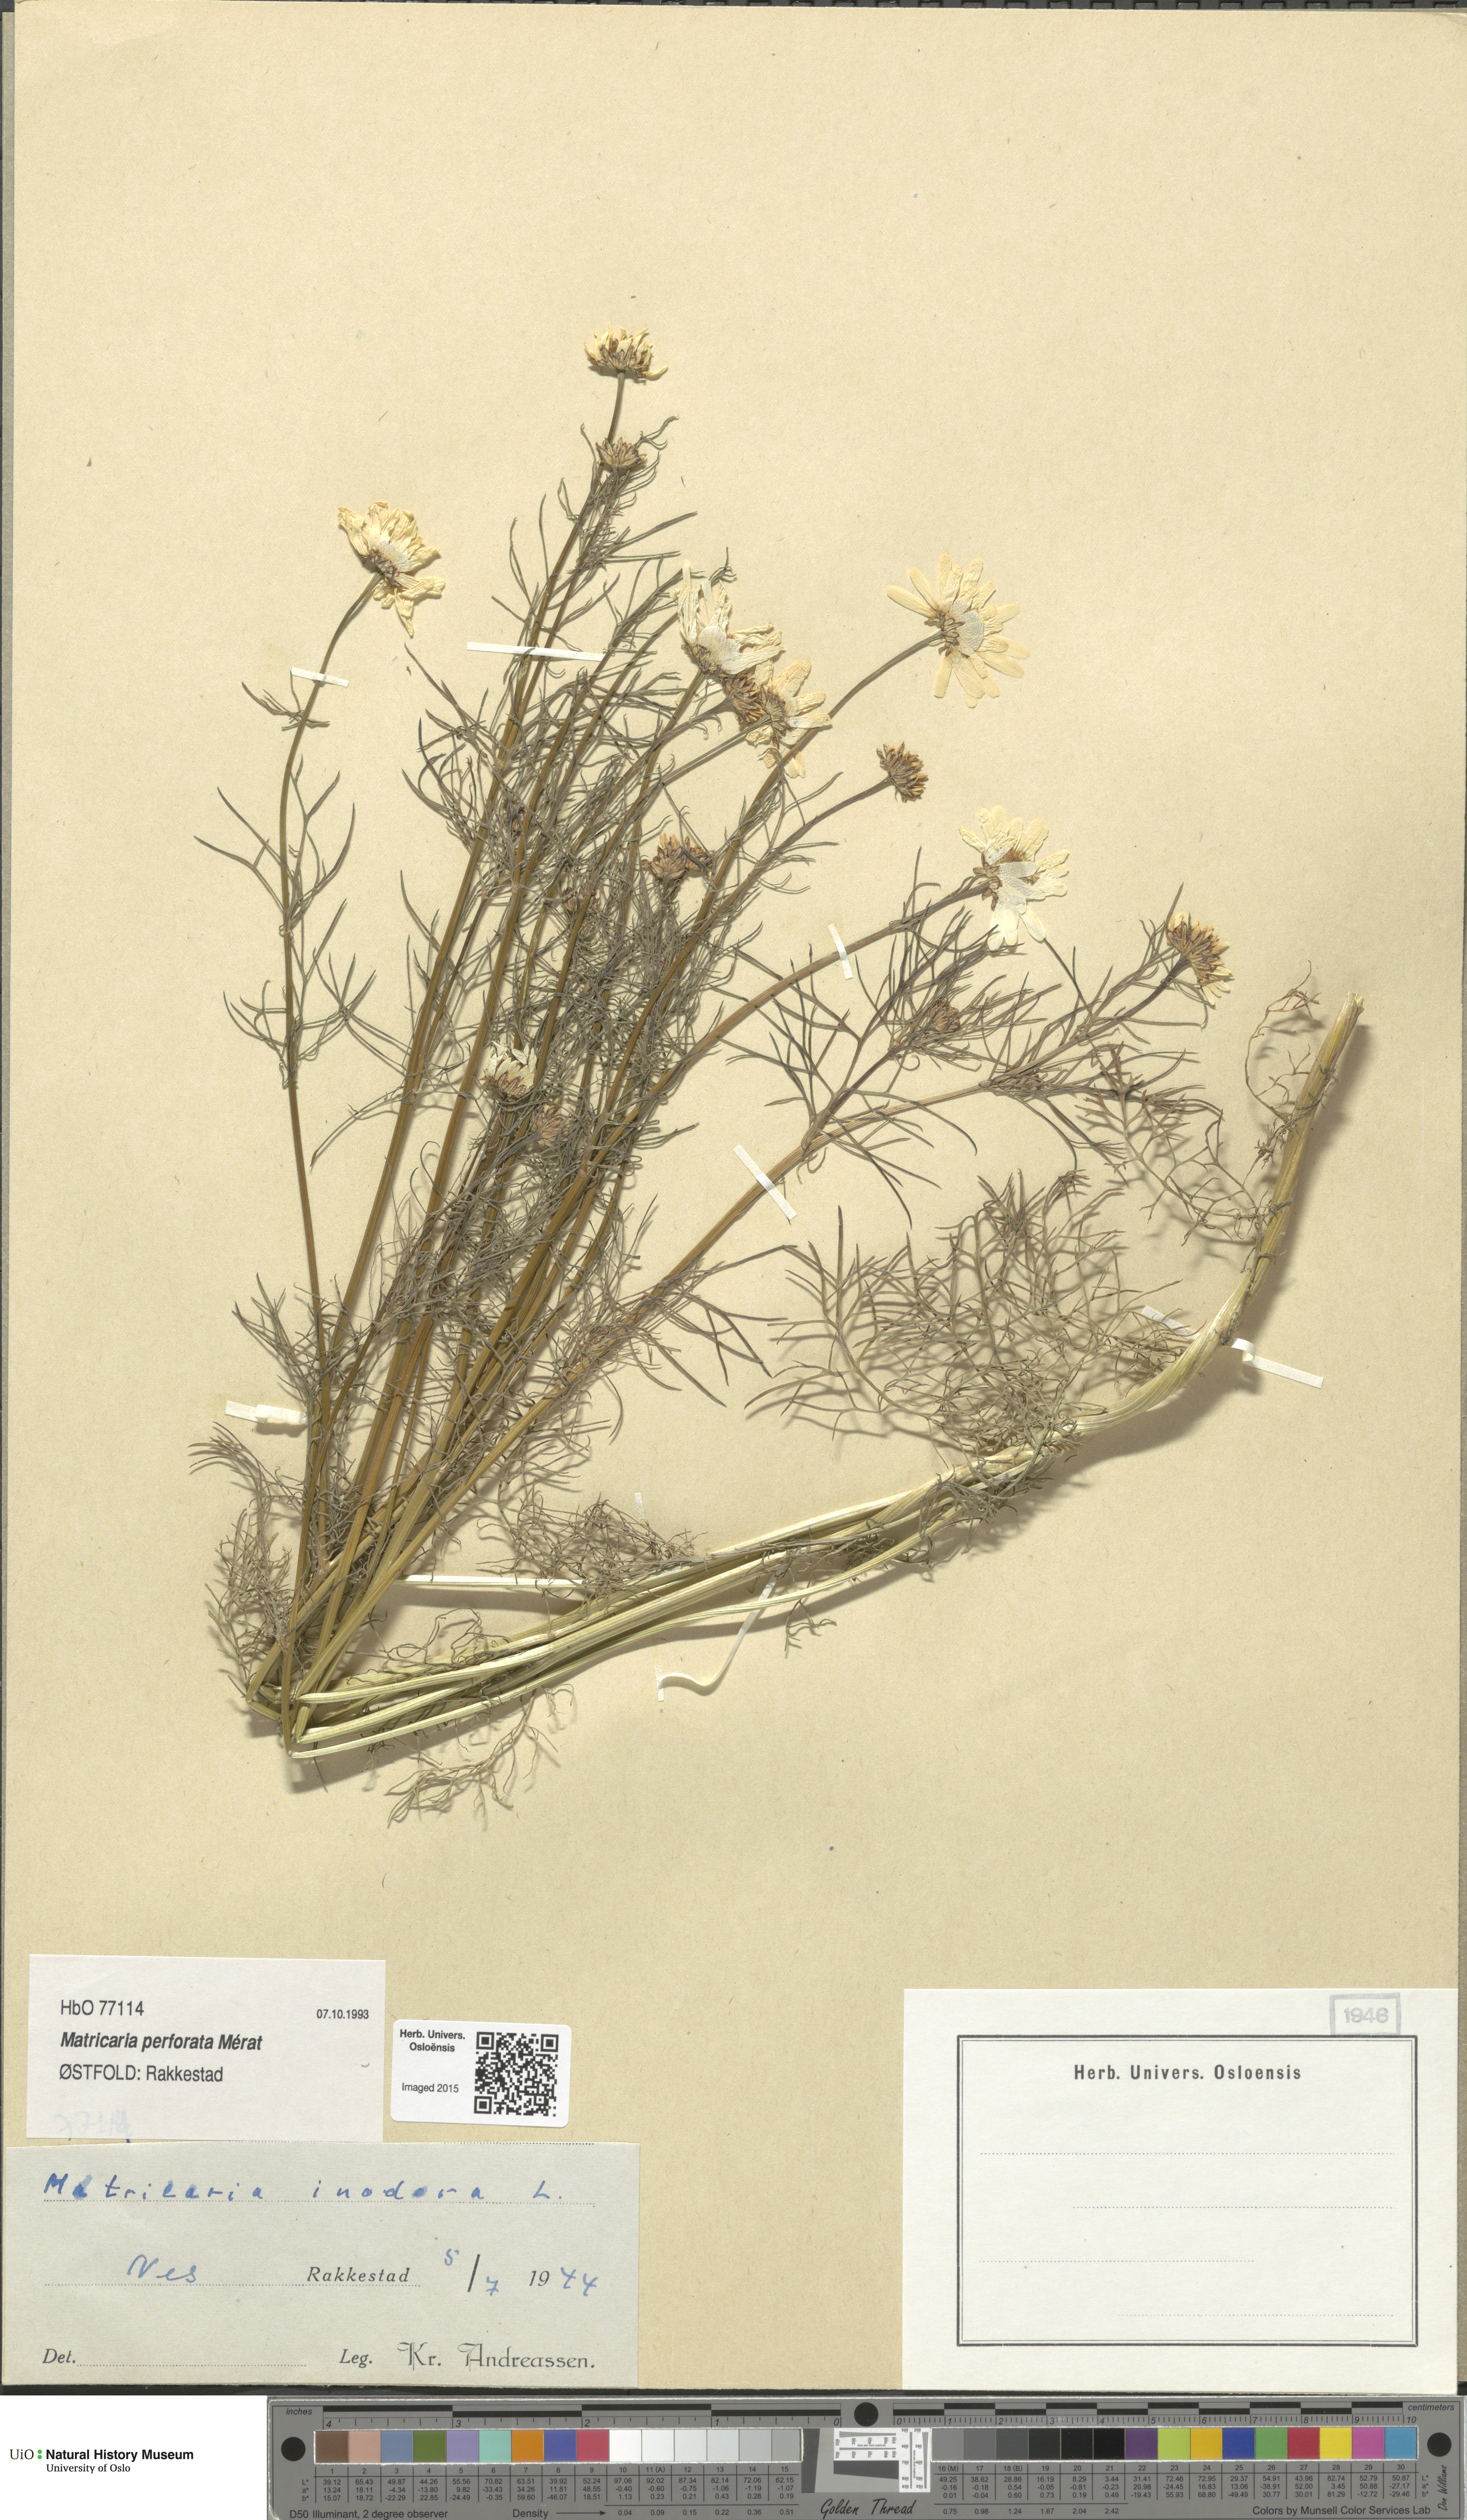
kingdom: Plantae
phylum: Tracheophyta
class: Magnoliopsida
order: Asterales
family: Asteraceae
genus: Tripleurospermum
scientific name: Tripleurospermum inodorum
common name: Scentless mayweed
